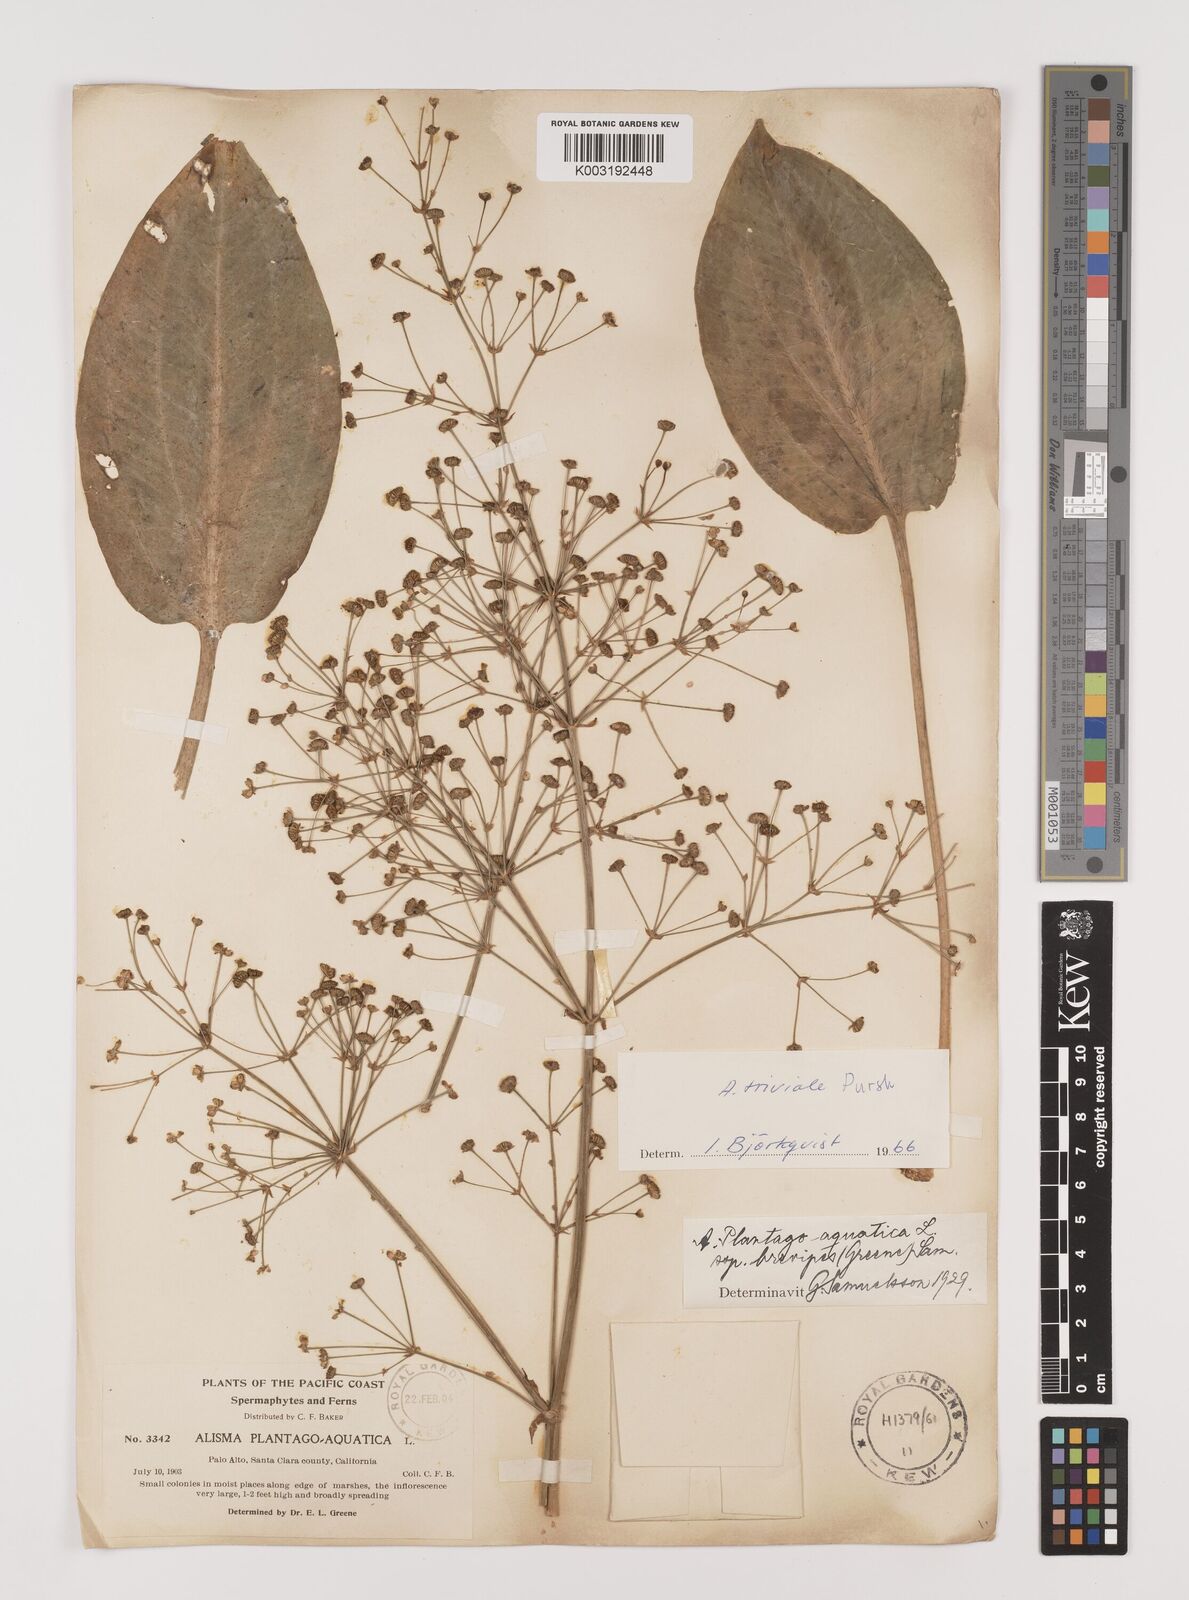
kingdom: Plantae
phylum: Tracheophyta
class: Liliopsida
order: Alismatales
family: Alismataceae
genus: Alisma
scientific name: Alisma triviale
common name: Northern water-plantain
